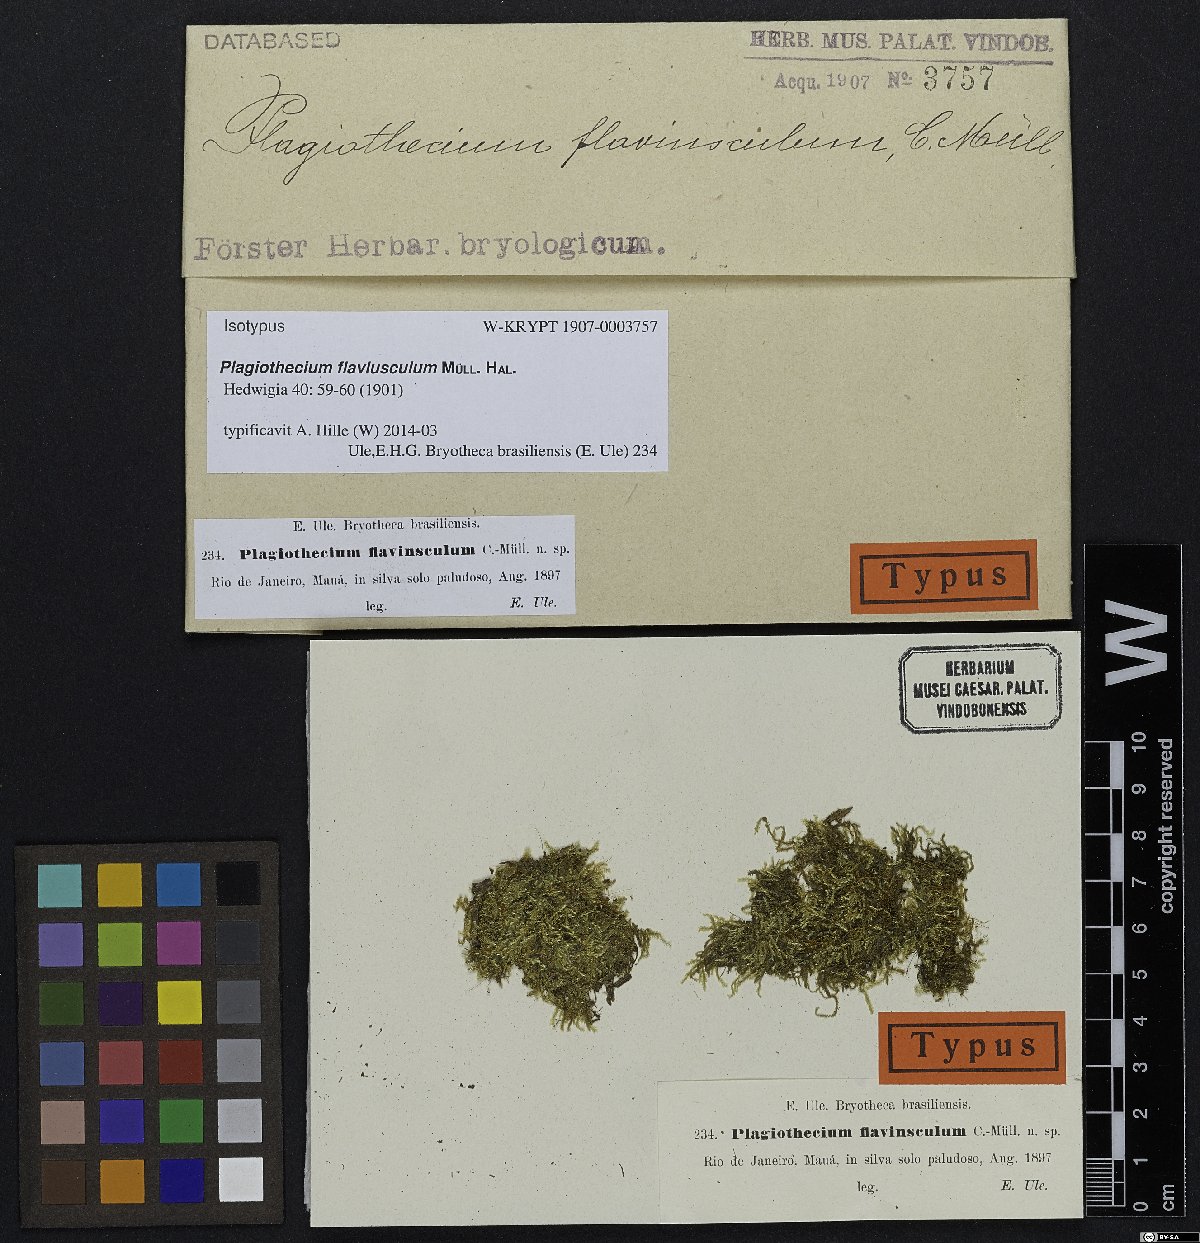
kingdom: Plantae
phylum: Bryophyta
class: Bryopsida
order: Hypnales
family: Pylaisiadelphaceae
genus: Isopterygium
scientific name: Isopterygium tenerum
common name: Isopterygium moss
